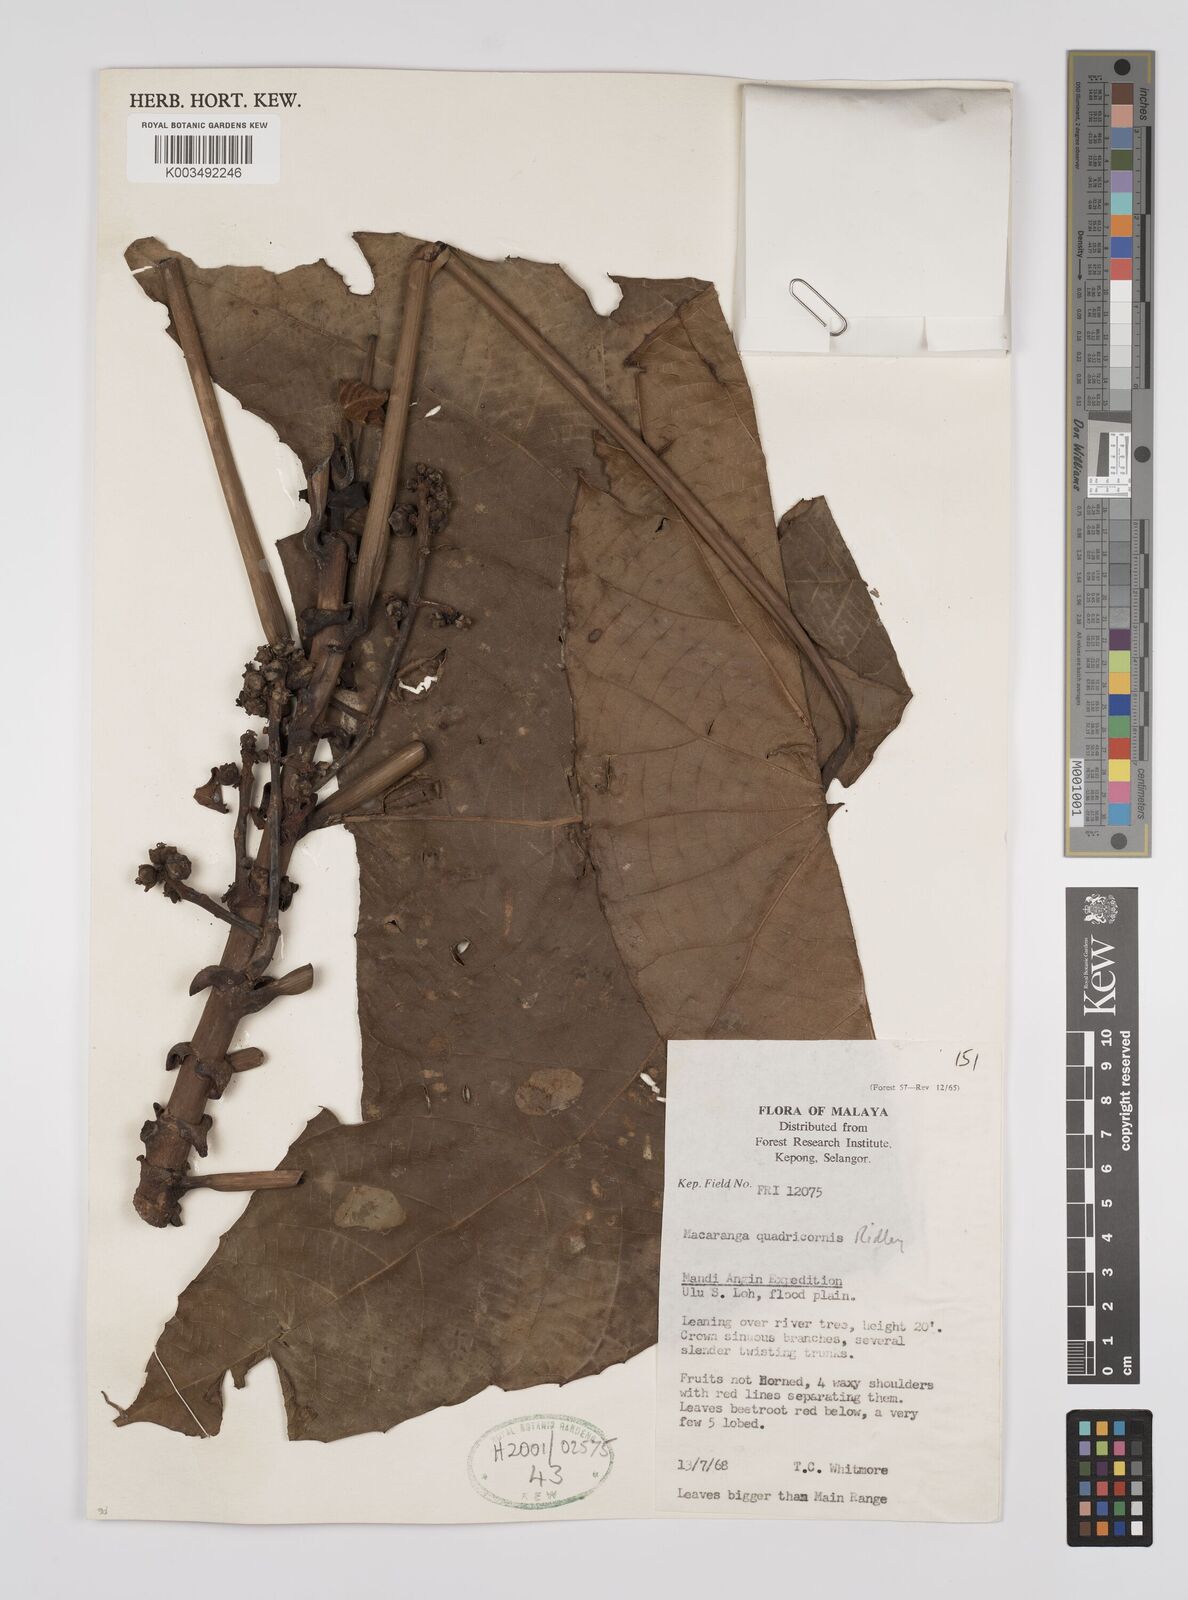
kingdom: Plantae
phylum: Tracheophyta
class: Magnoliopsida
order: Malpighiales
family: Euphorbiaceae
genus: Macaranga
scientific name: Macaranga triloba
